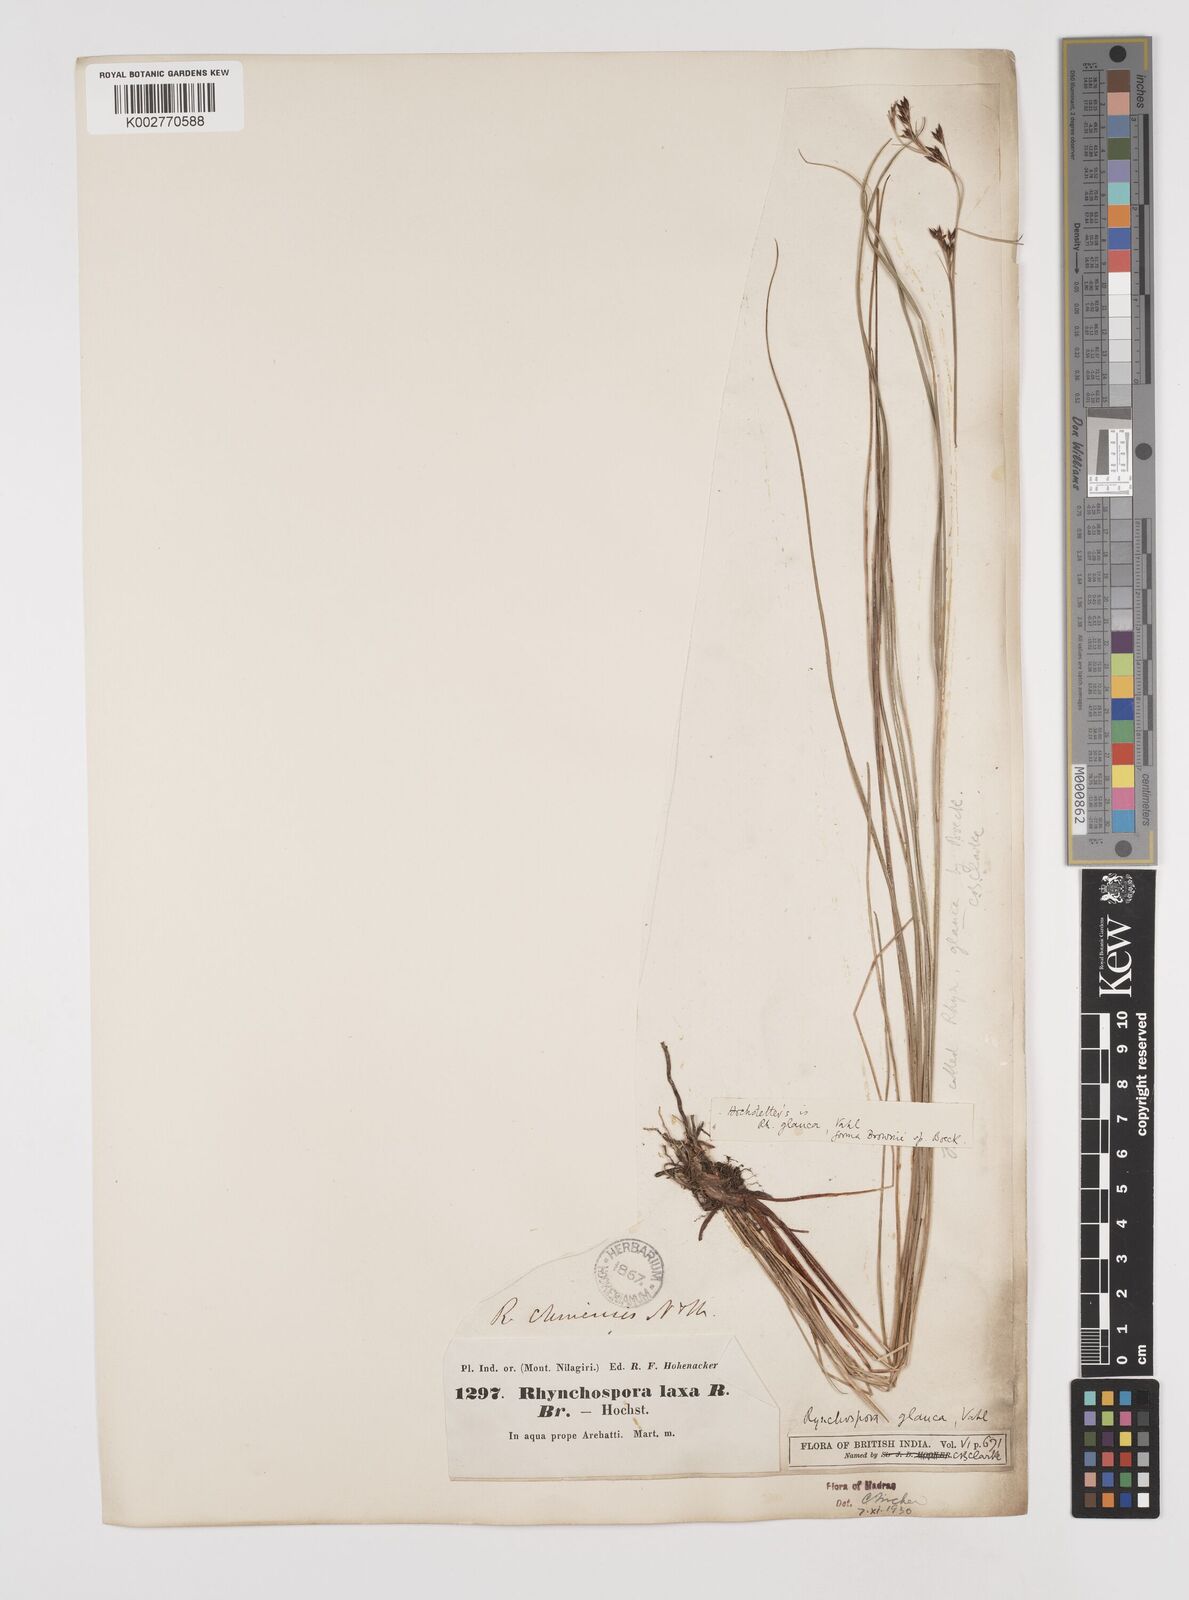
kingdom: Plantae
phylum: Tracheophyta
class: Liliopsida
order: Poales
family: Cyperaceae
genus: Rhynchospora
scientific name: Rhynchospora rugosa
